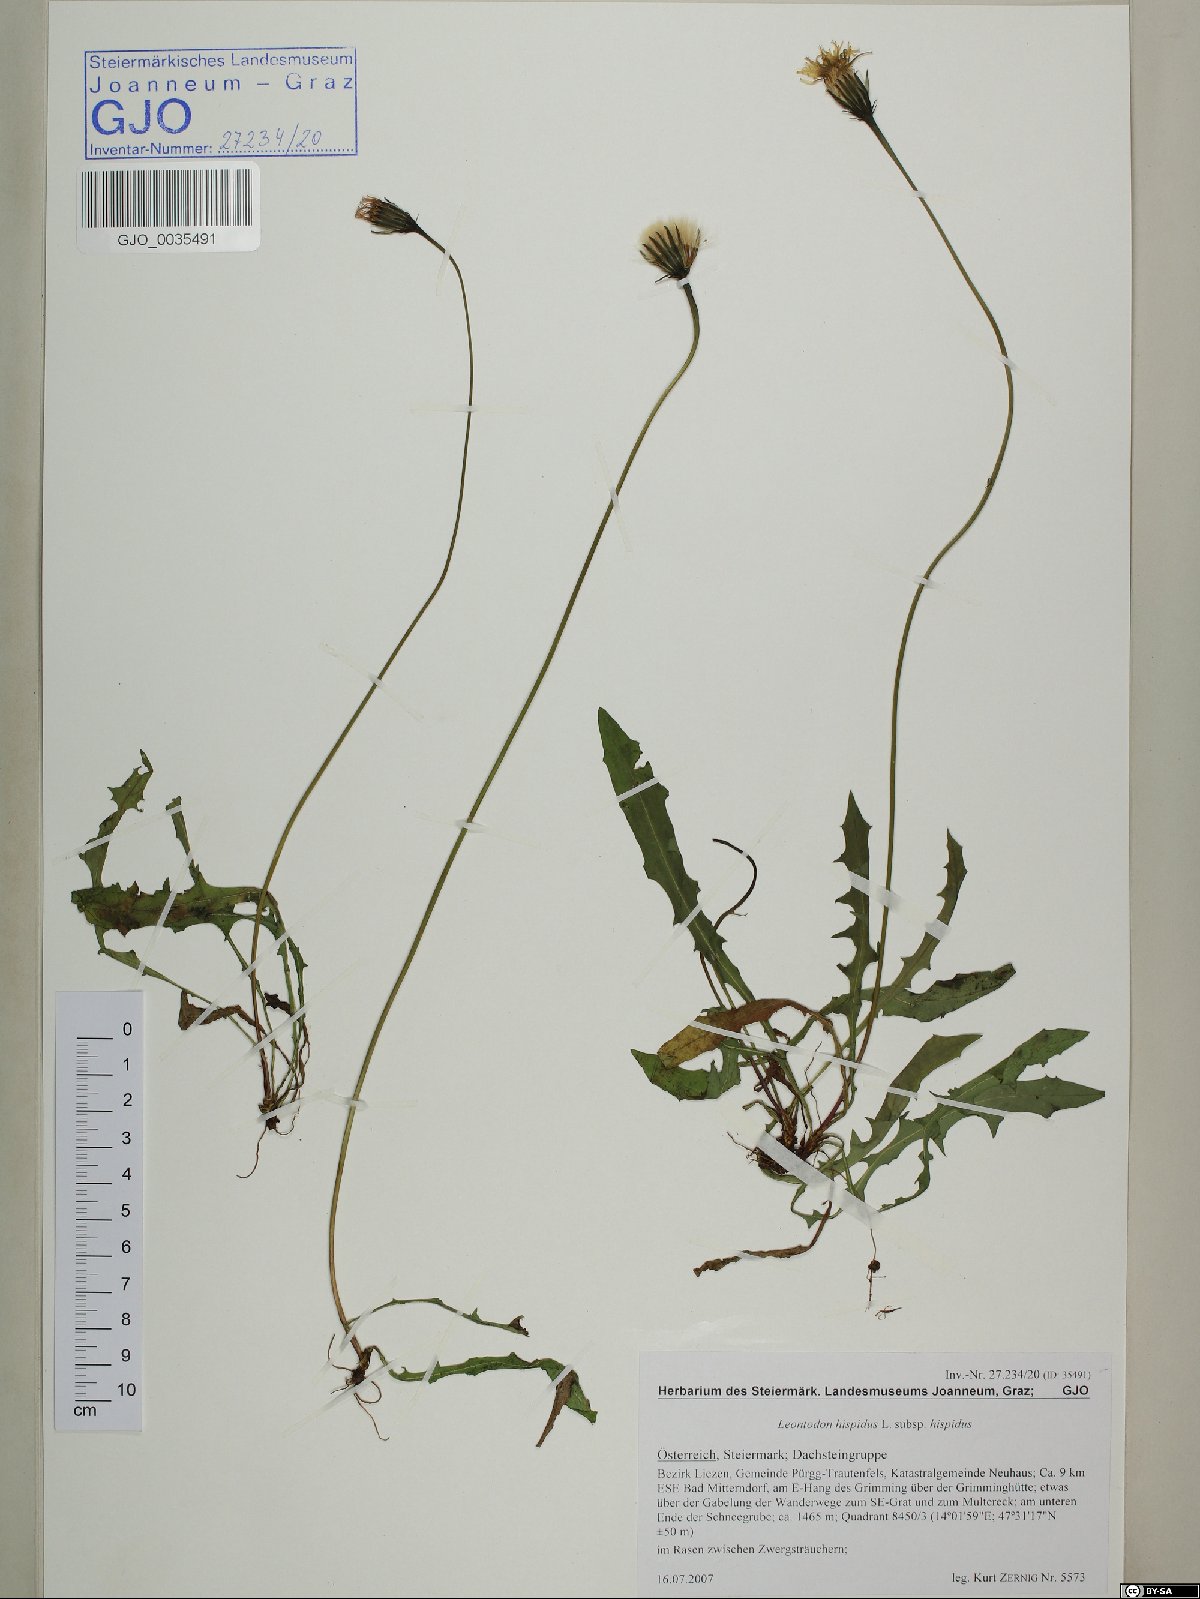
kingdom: Plantae
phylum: Tracheophyta
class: Magnoliopsida
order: Asterales
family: Asteraceae
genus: Leontodon
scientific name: Leontodon hispidus
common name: Rough hawkbit
